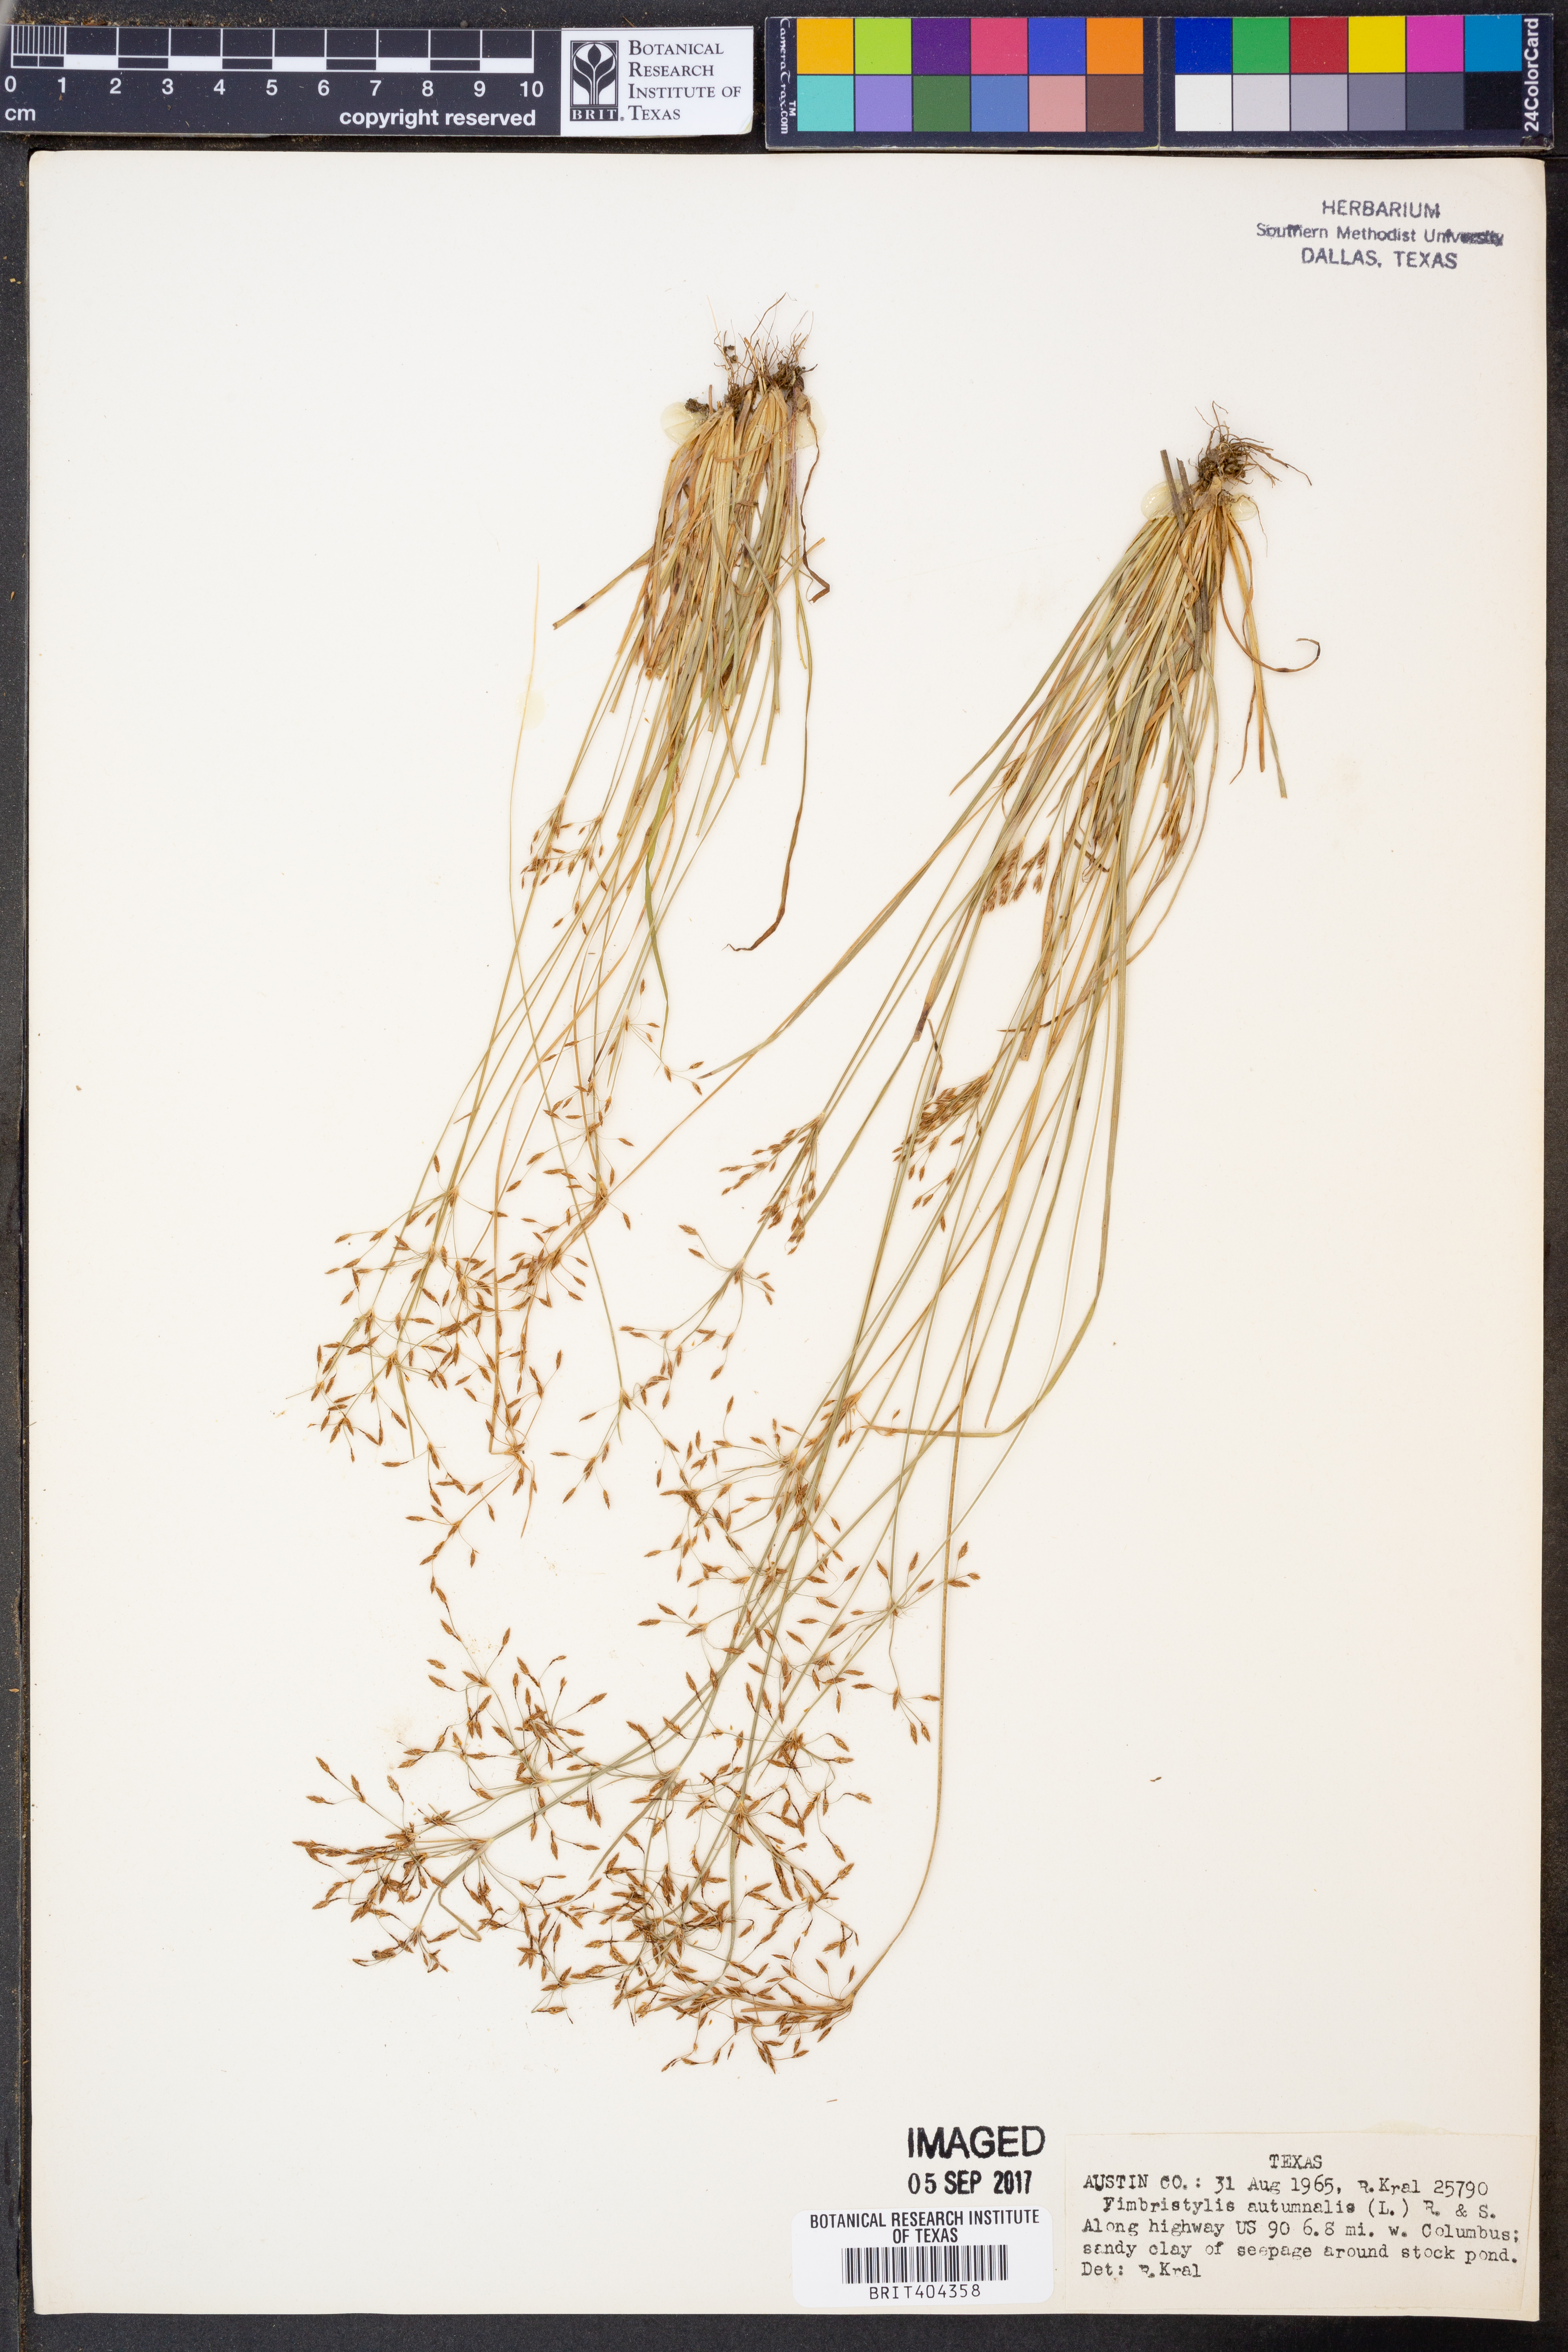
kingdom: Plantae
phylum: Tracheophyta
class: Liliopsida
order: Poales
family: Cyperaceae
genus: Fimbristylis
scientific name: Fimbristylis autumnalis
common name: Slender fimbristylis
